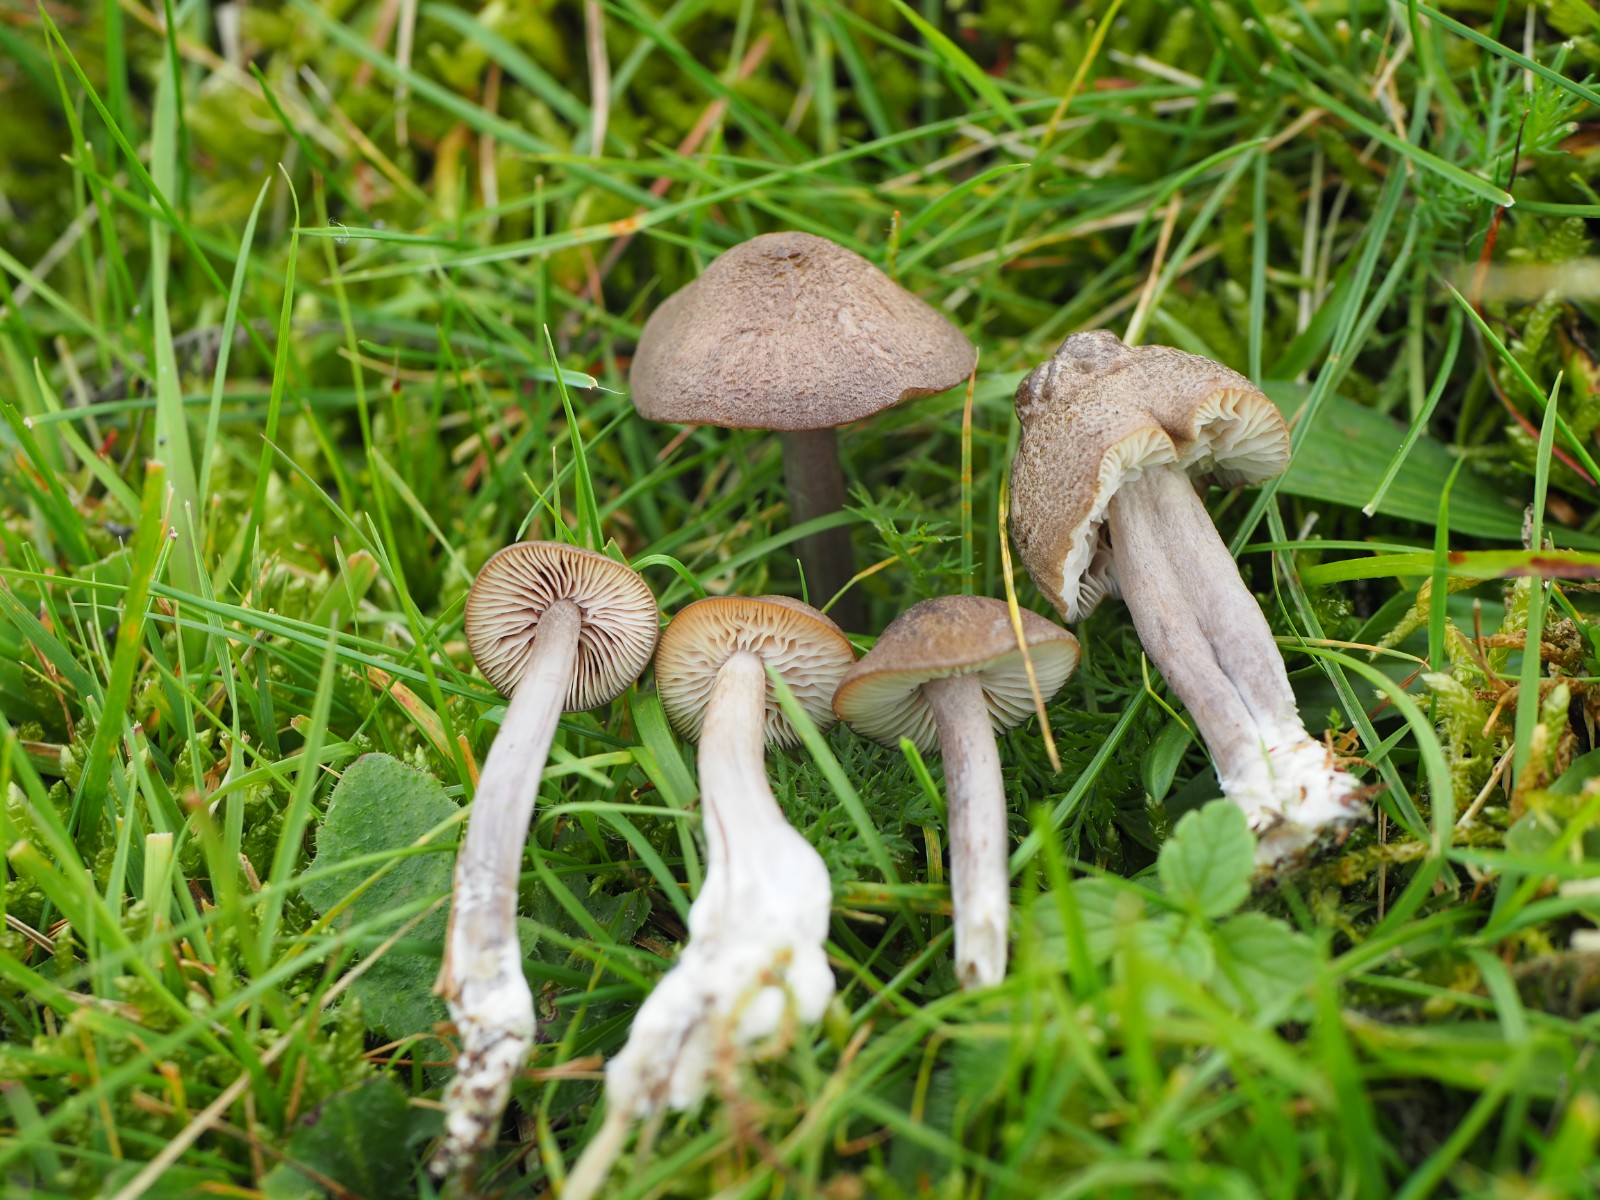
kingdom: Fungi
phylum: Basidiomycota
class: Agaricomycetes
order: Agaricales
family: Entolomataceae
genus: Entoloma
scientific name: Entoloma griseocyaneum
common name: gråblå rødblad
